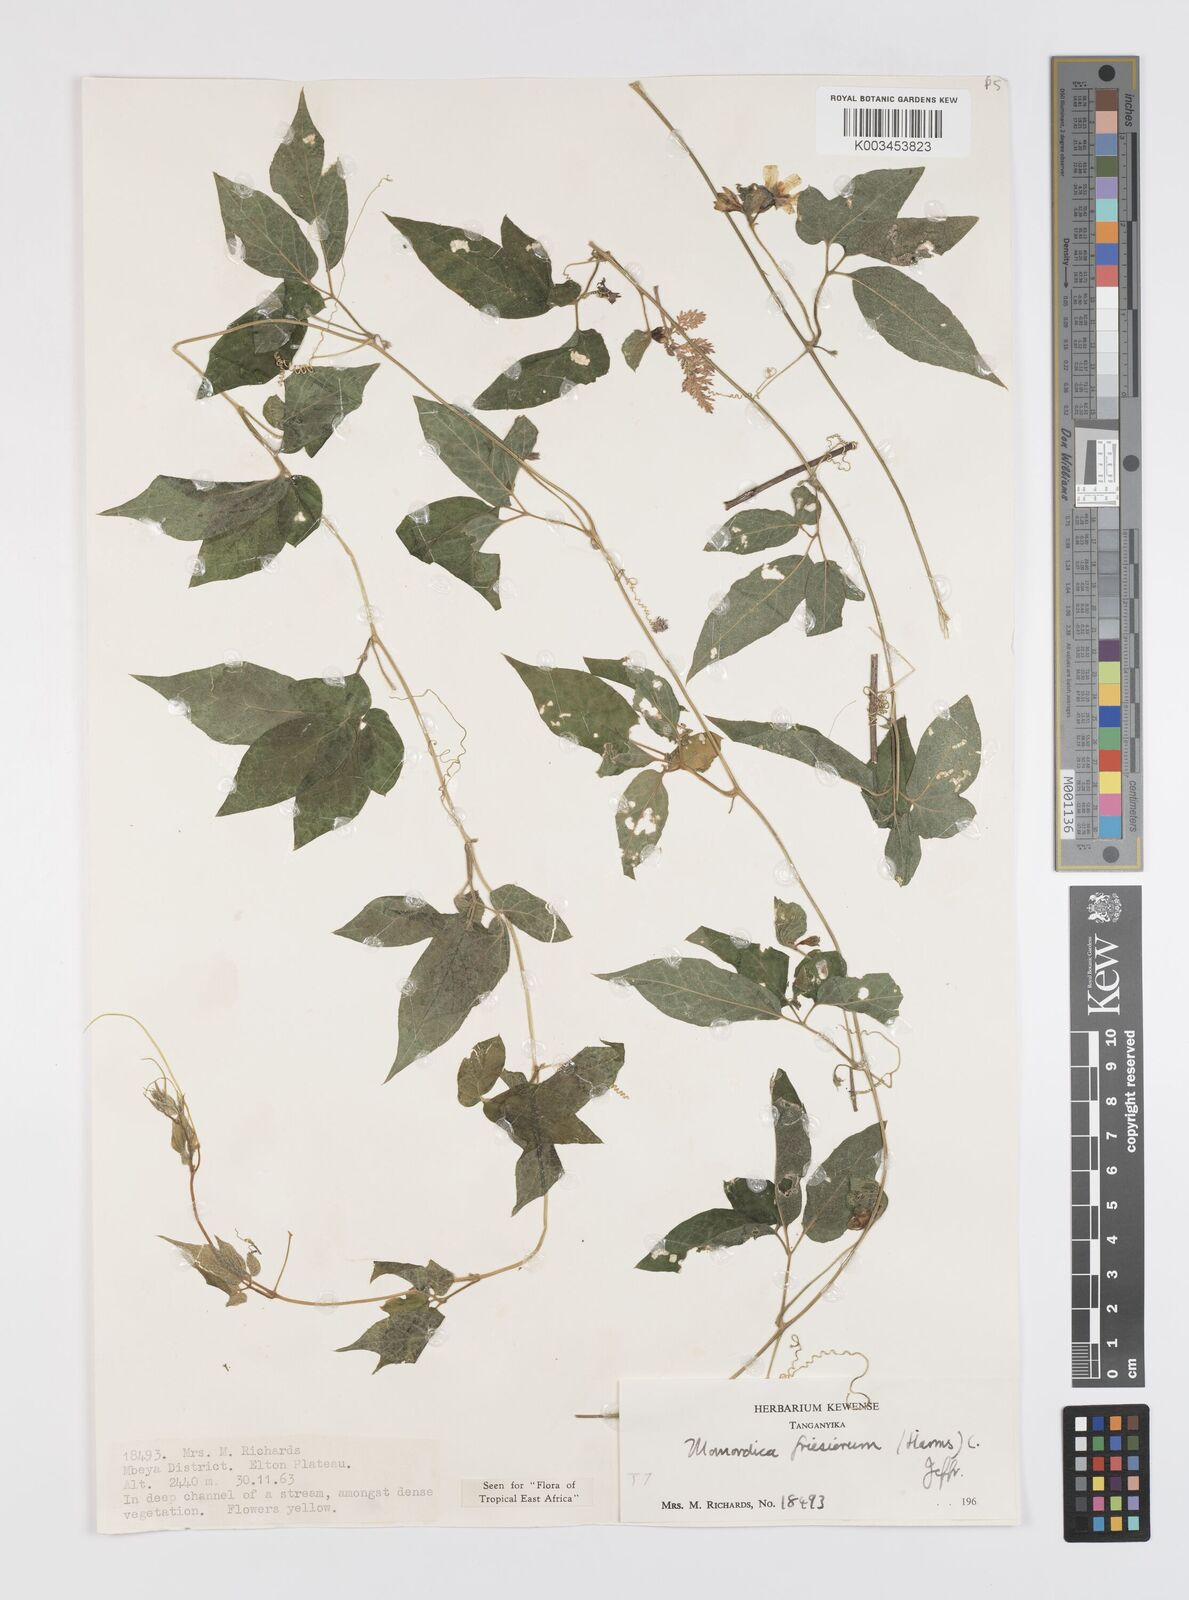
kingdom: Plantae
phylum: Tracheophyta
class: Magnoliopsida
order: Cucurbitales
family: Cucurbitaceae
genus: Momordica
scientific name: Momordica friesiorum
